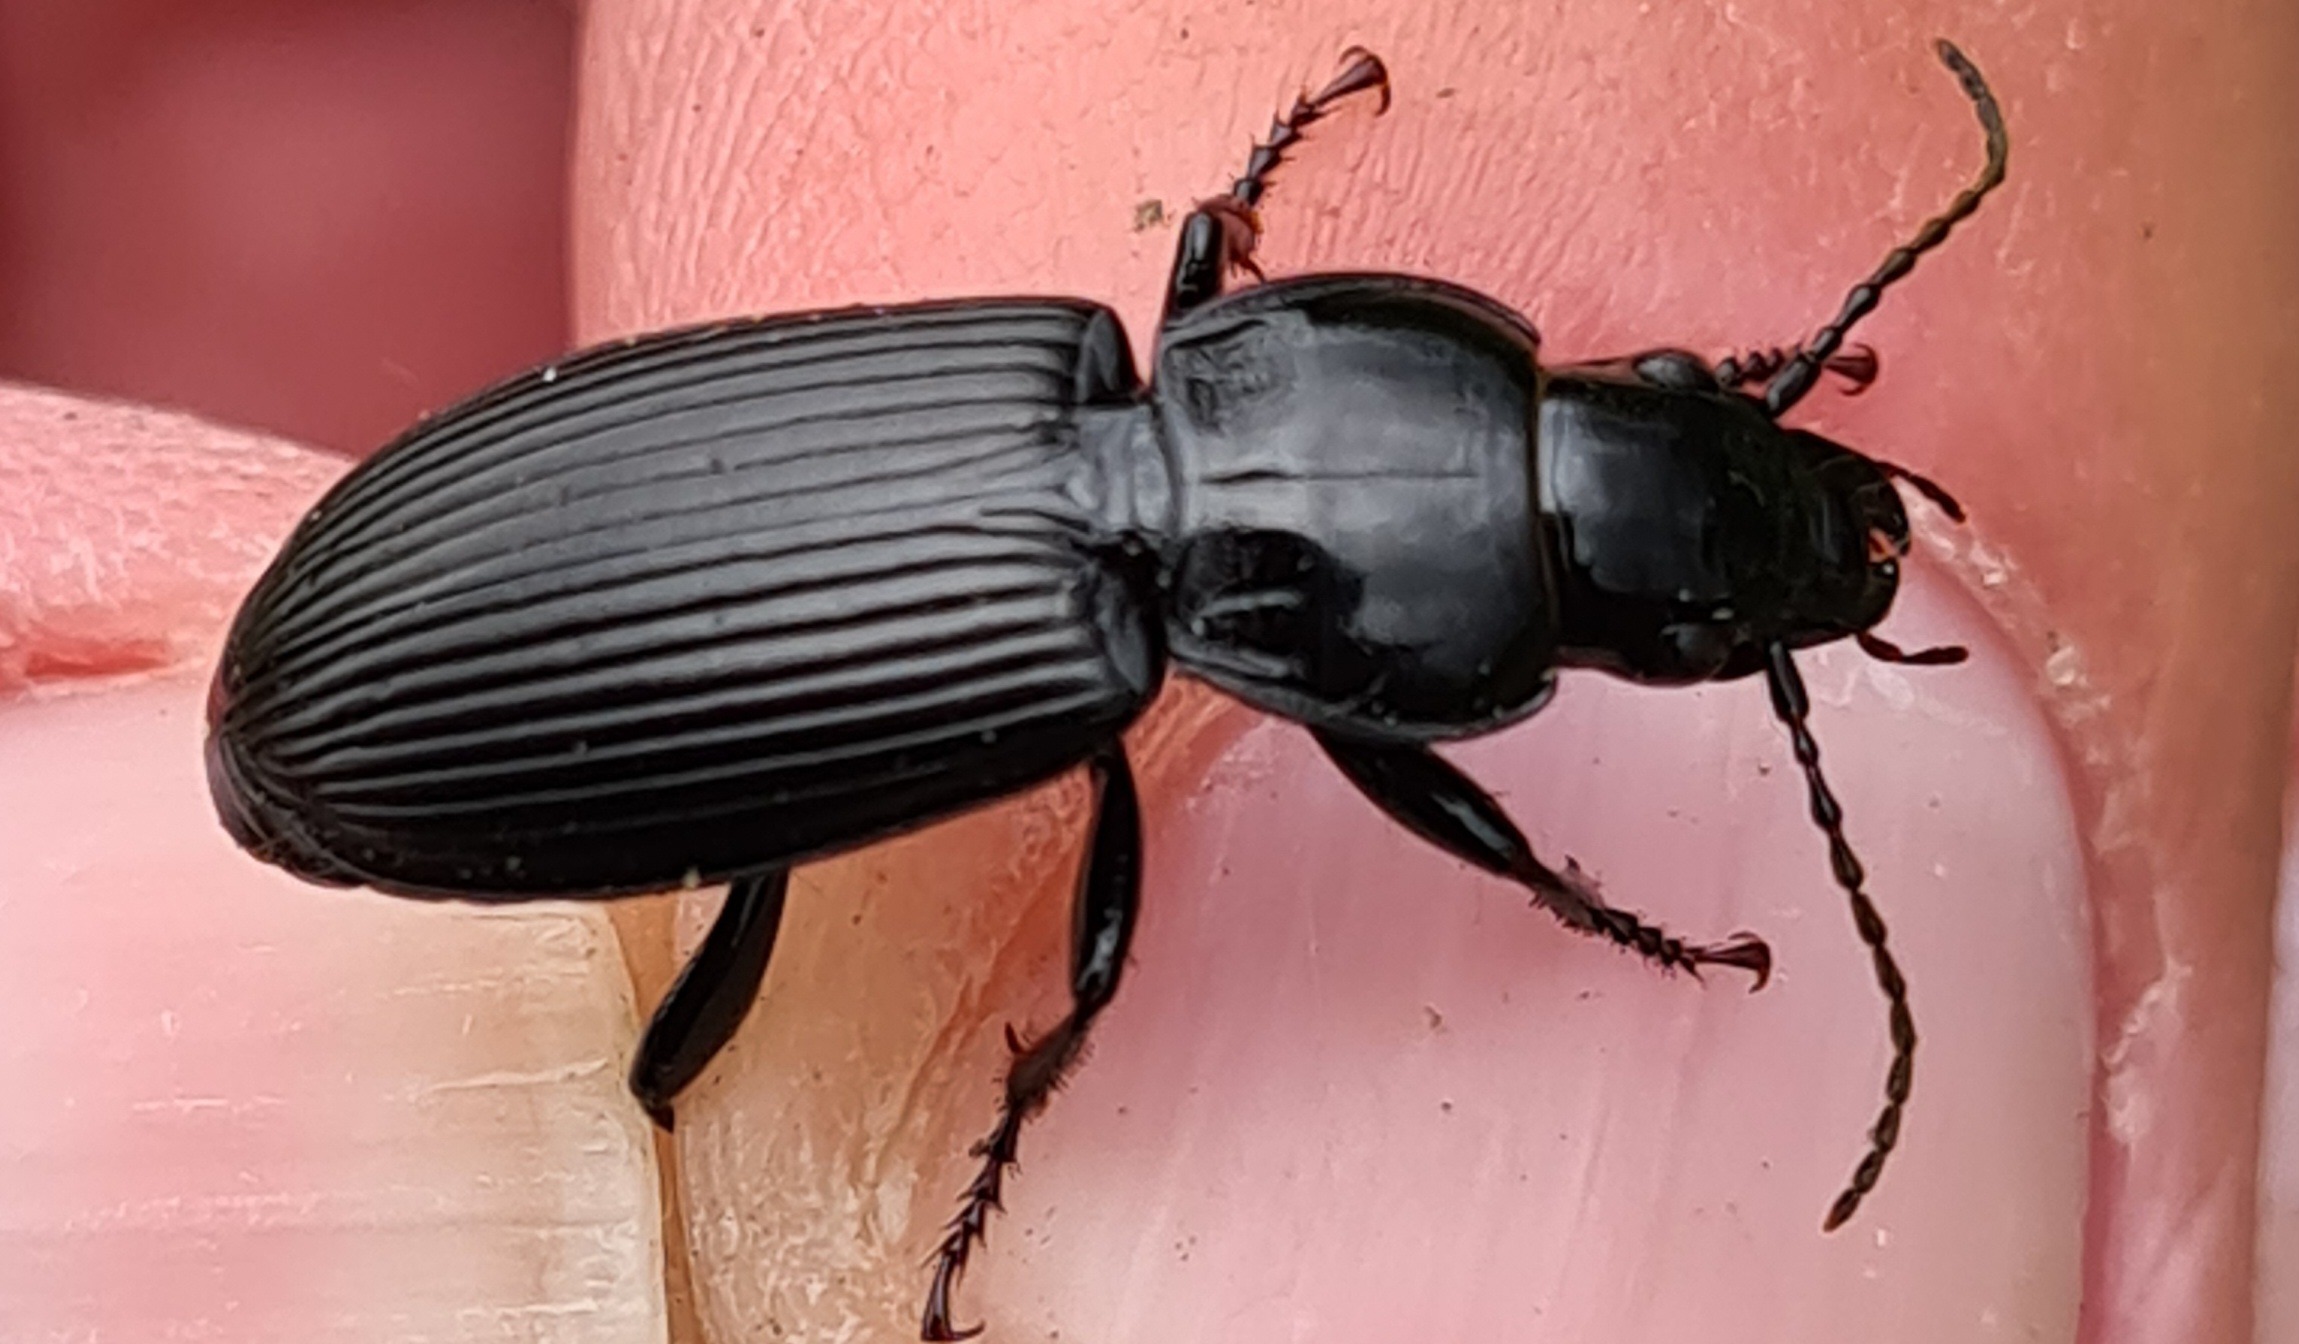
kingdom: Animalia
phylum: Arthropoda
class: Insecta
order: Coleoptera
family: Carabidae
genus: Pterostichus
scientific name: Pterostichus melanarius
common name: Markjordløber
